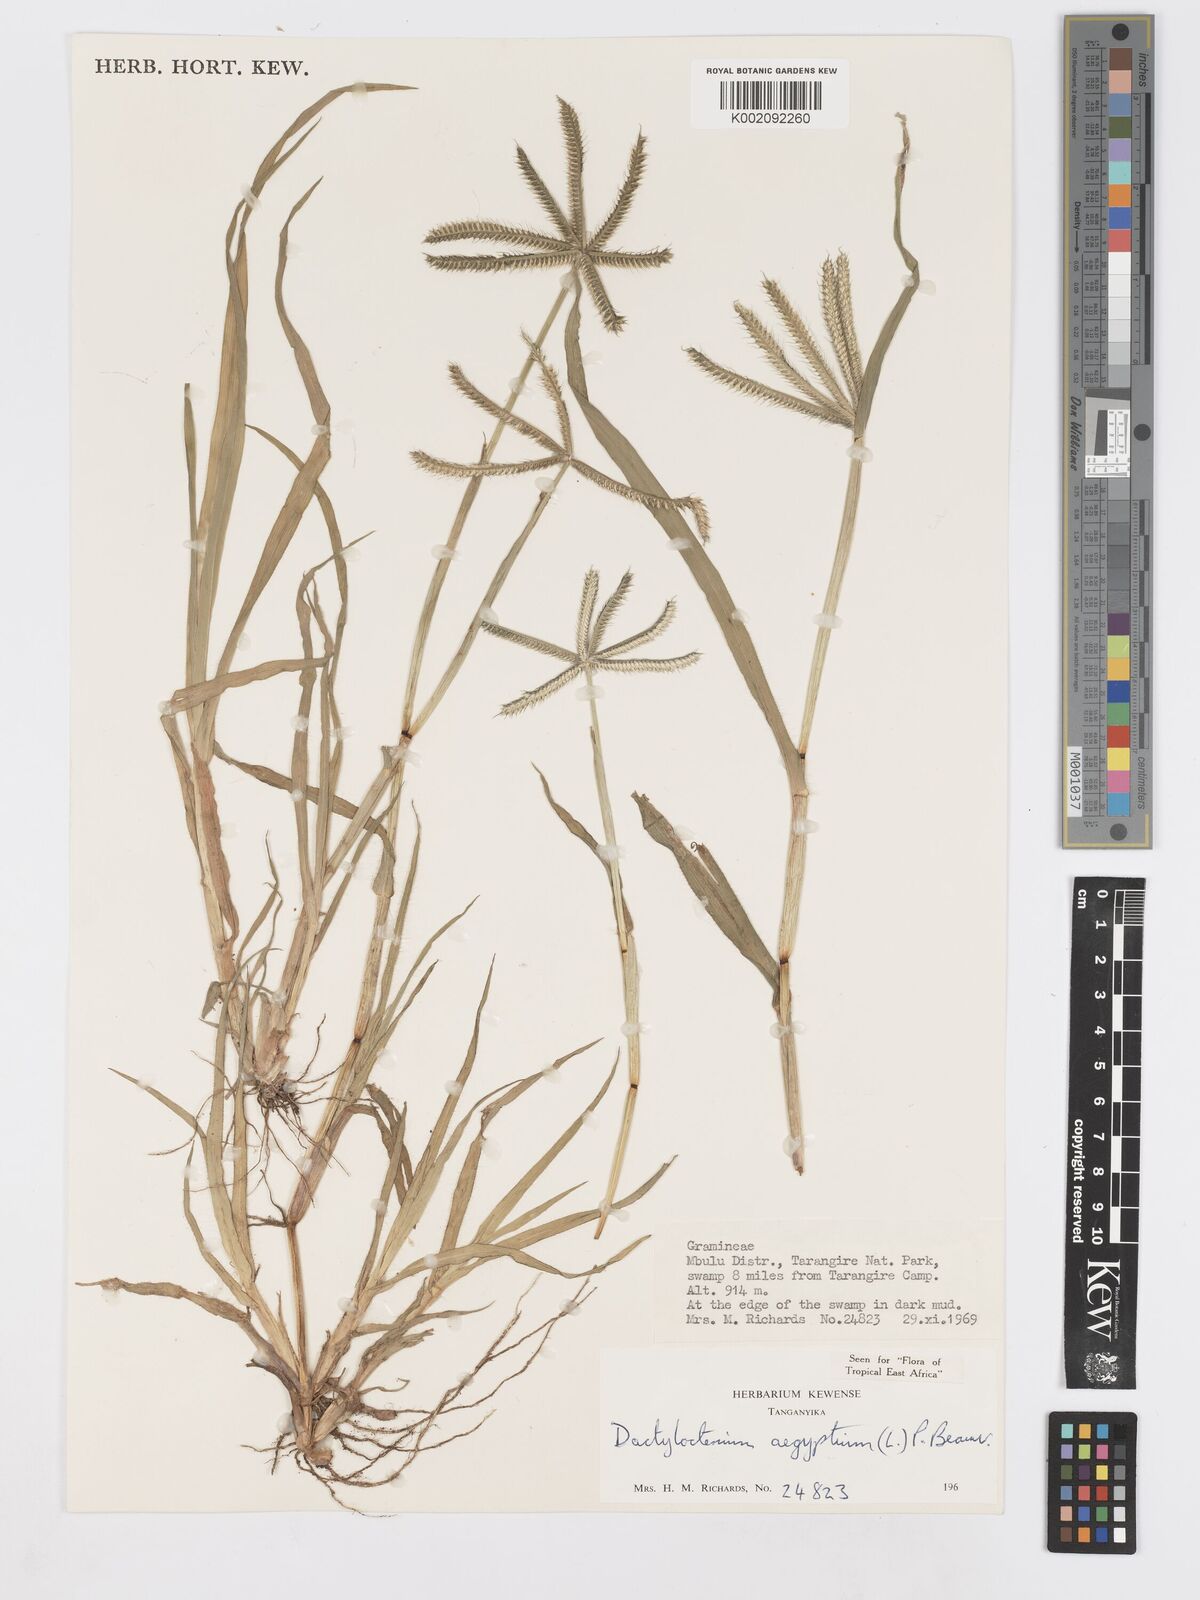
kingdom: Plantae
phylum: Tracheophyta
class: Liliopsida
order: Poales
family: Poaceae
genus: Dactyloctenium
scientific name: Dactyloctenium aegyptium
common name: Egyptian grass
